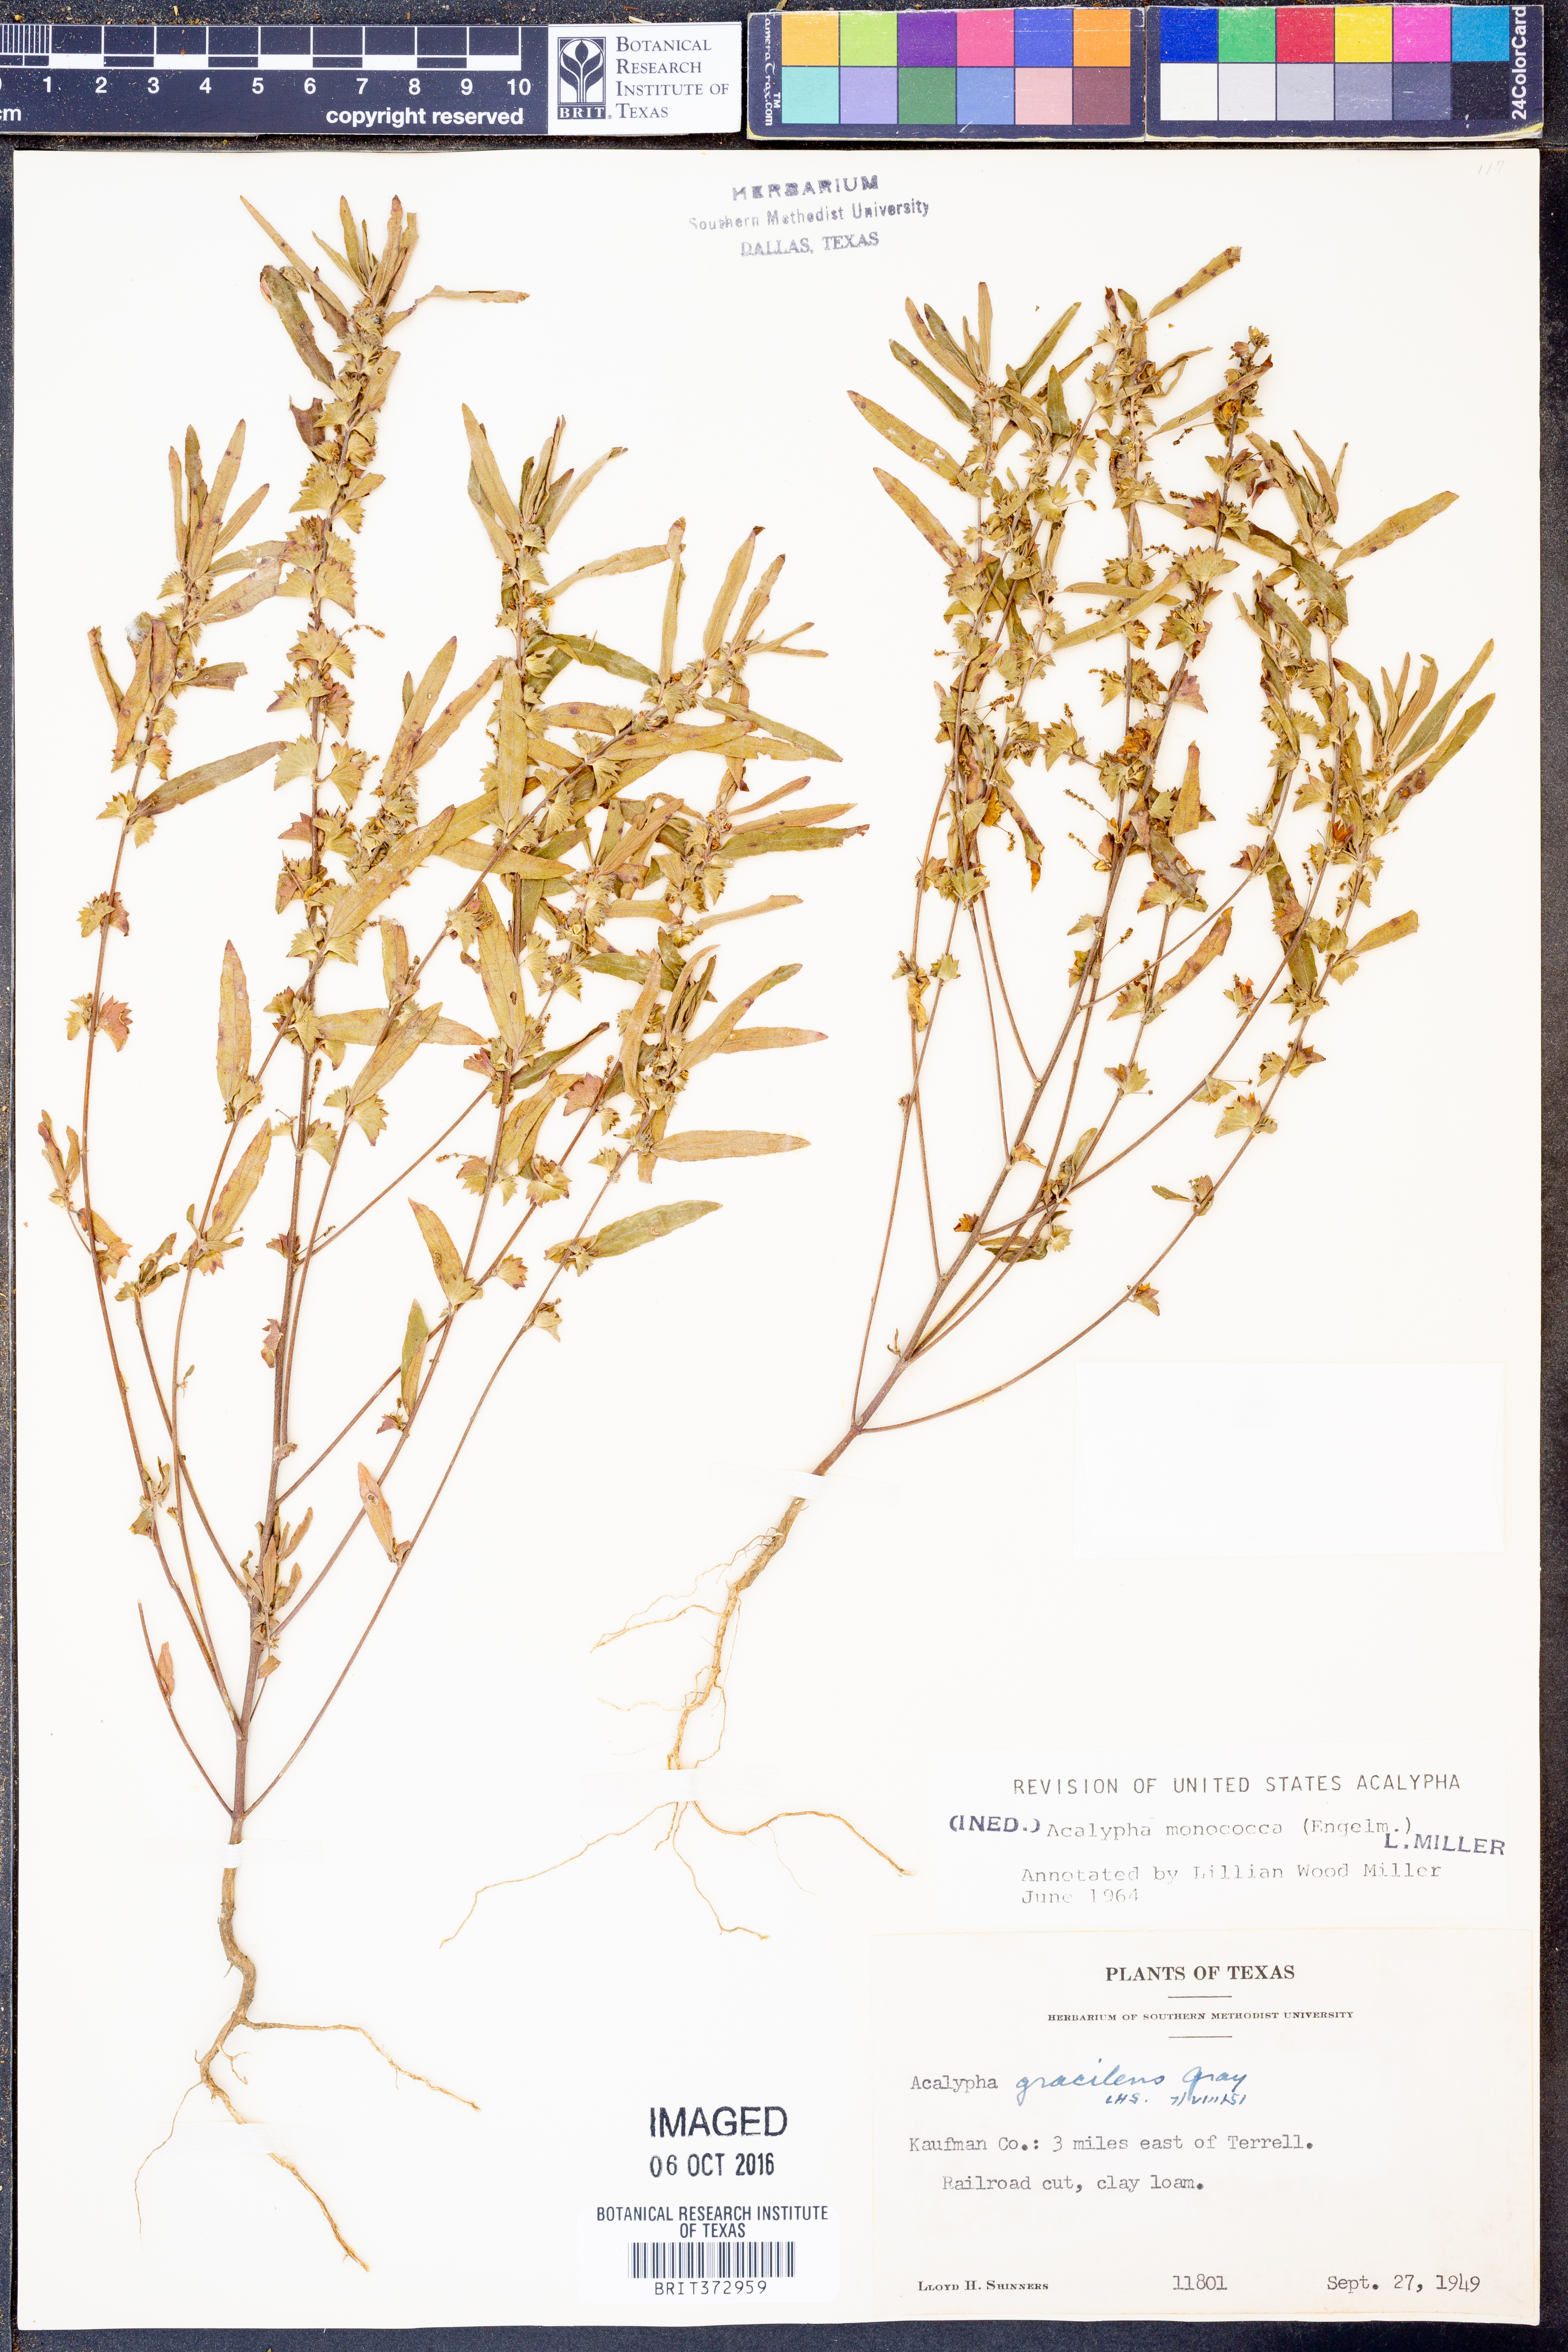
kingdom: Plantae
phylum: Tracheophyta
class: Magnoliopsida
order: Malpighiales
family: Euphorbiaceae
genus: Acalypha
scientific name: Acalypha monococca
